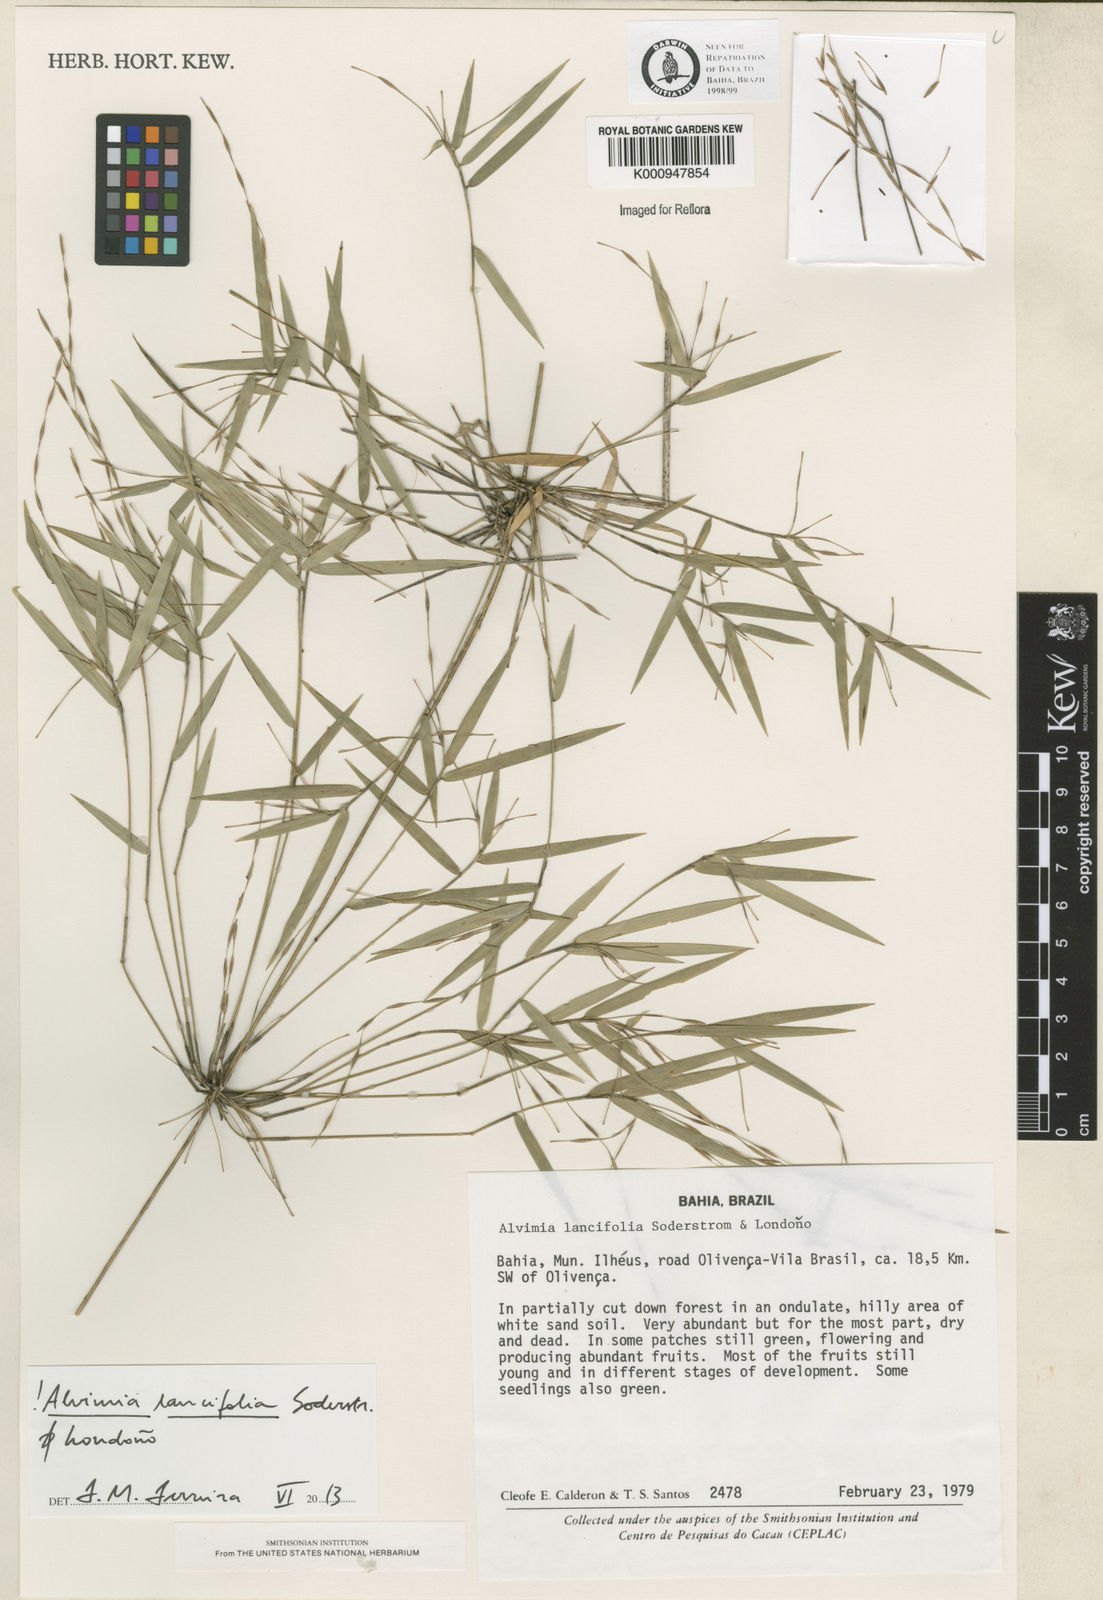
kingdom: Plantae
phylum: Tracheophyta
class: Liliopsida
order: Poales
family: Poaceae
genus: Alvimia
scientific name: Alvimia
